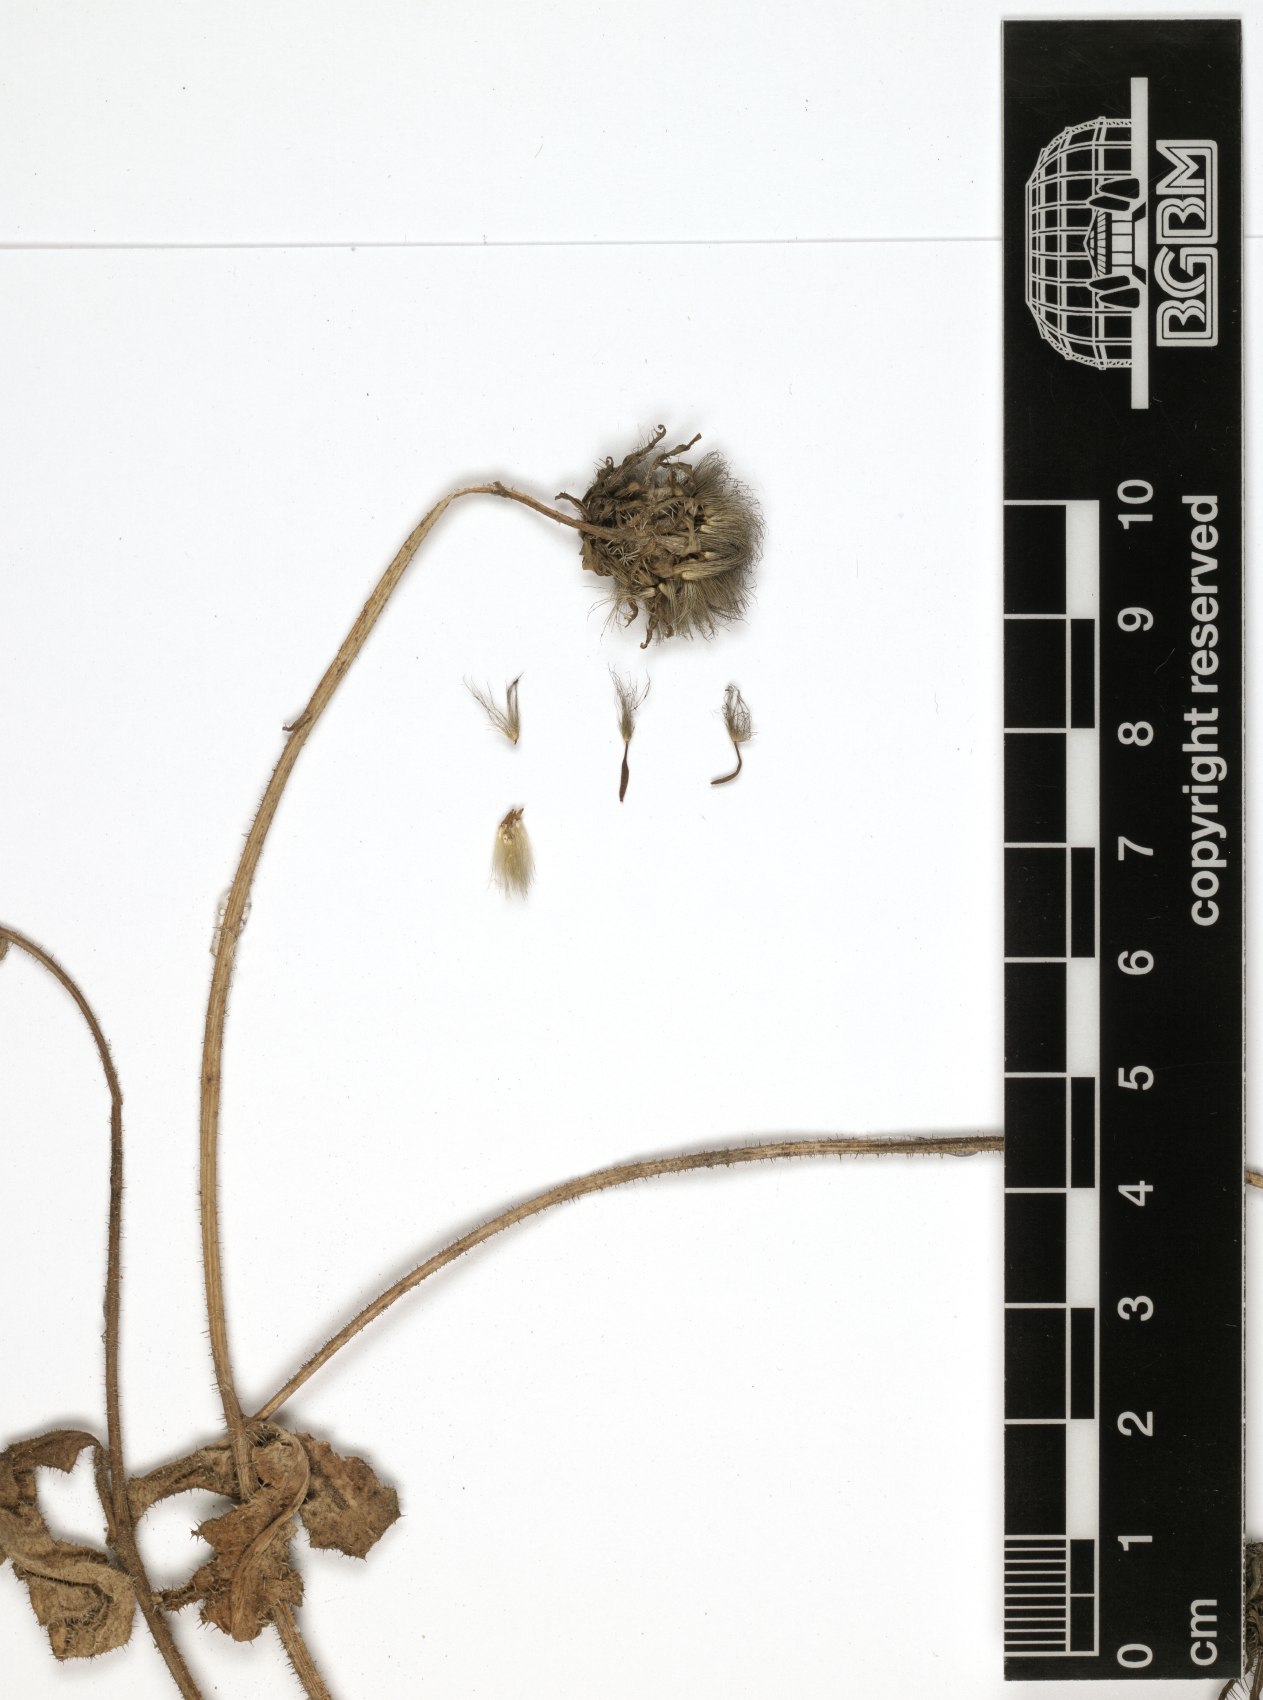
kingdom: Plantae
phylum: Tracheophyta
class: Magnoliopsida
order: Asterales
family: Asteraceae
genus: Picris
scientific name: Picris scabra
